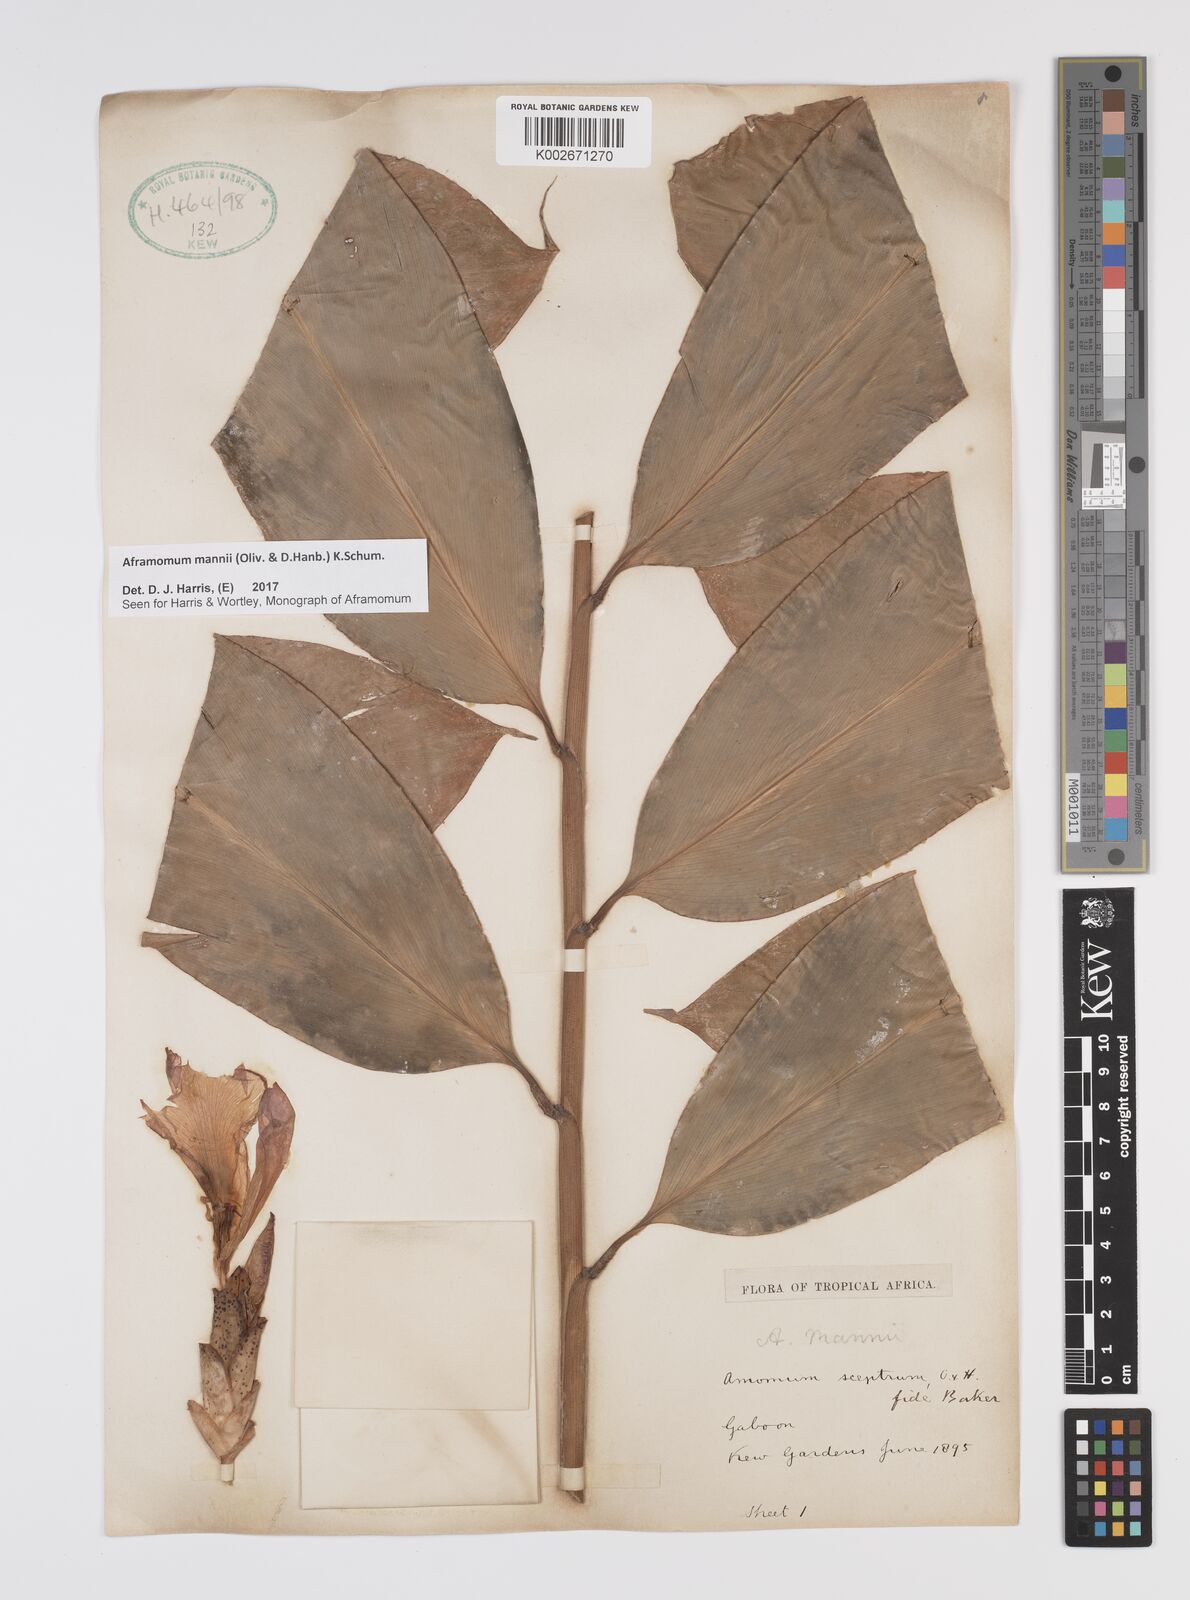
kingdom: Plantae
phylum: Tracheophyta
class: Liliopsida
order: Zingiberales
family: Zingiberaceae
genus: Aframomum
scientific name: Aframomum mannii
